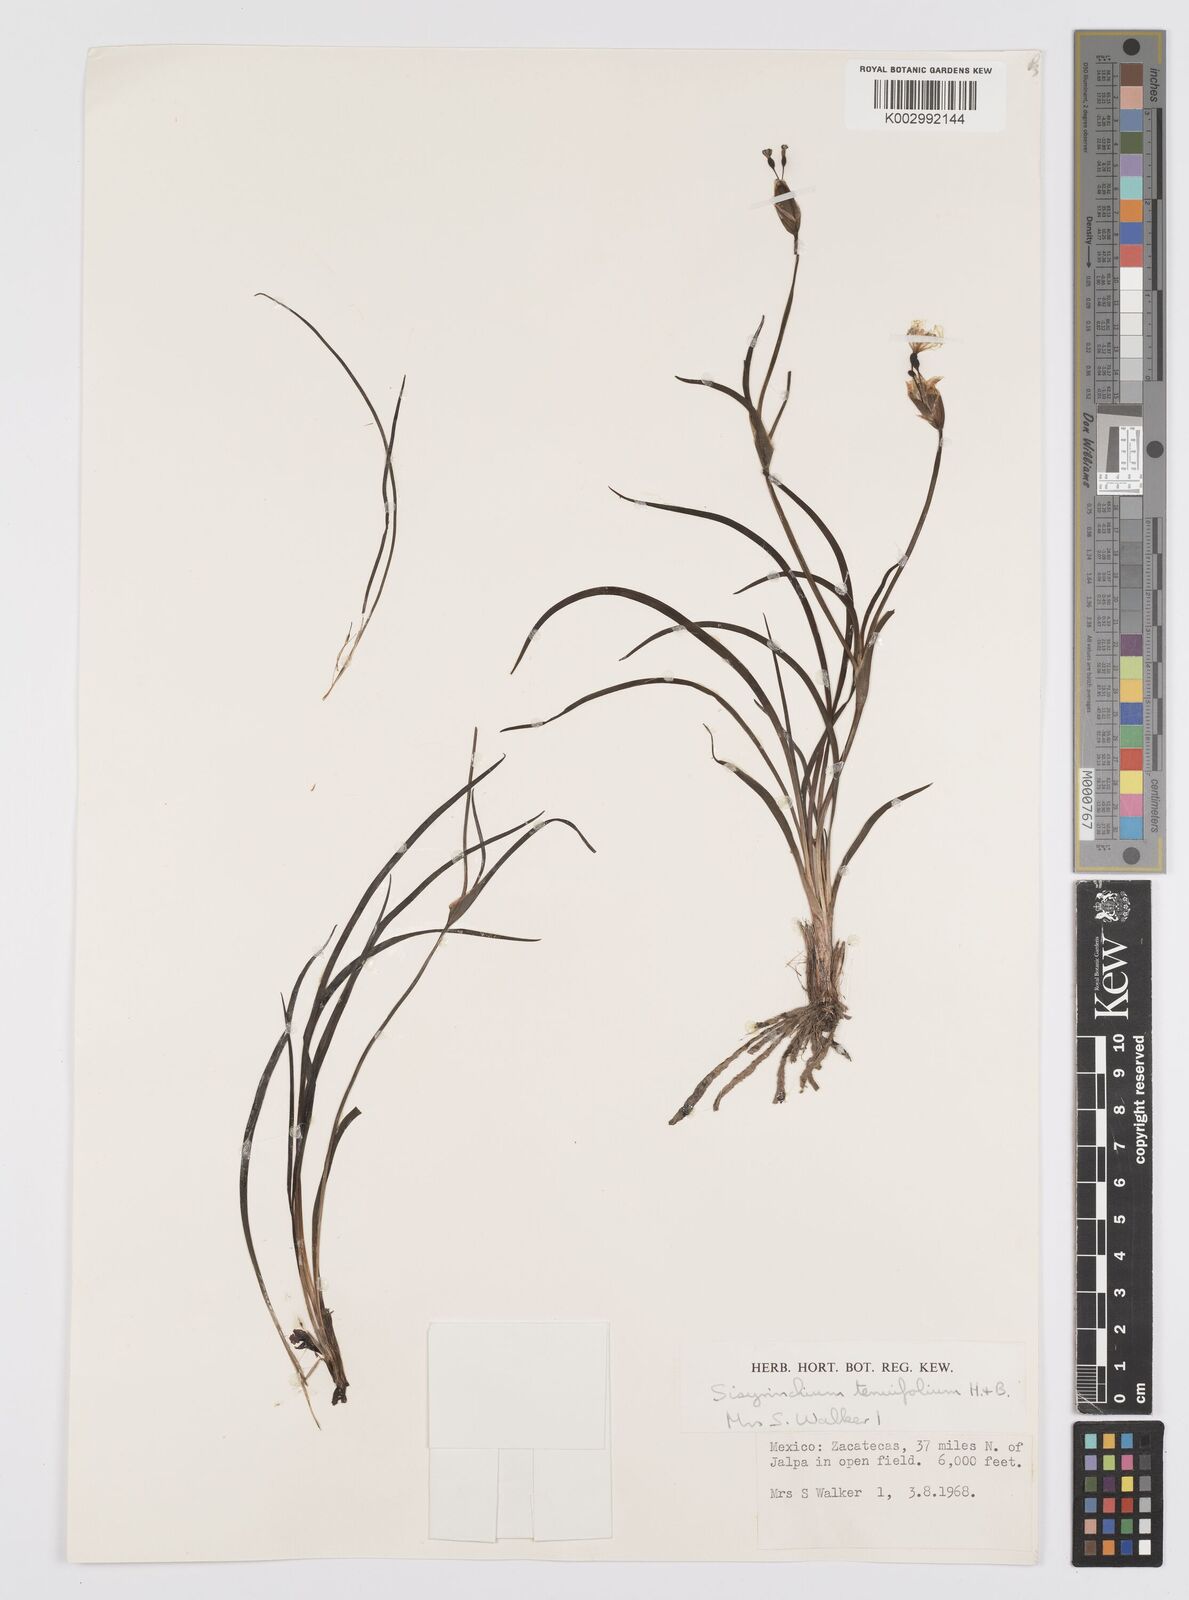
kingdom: Plantae
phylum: Tracheophyta
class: Liliopsida
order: Asparagales
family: Iridaceae
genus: Sisyrinchium
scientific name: Sisyrinchium langloisii
